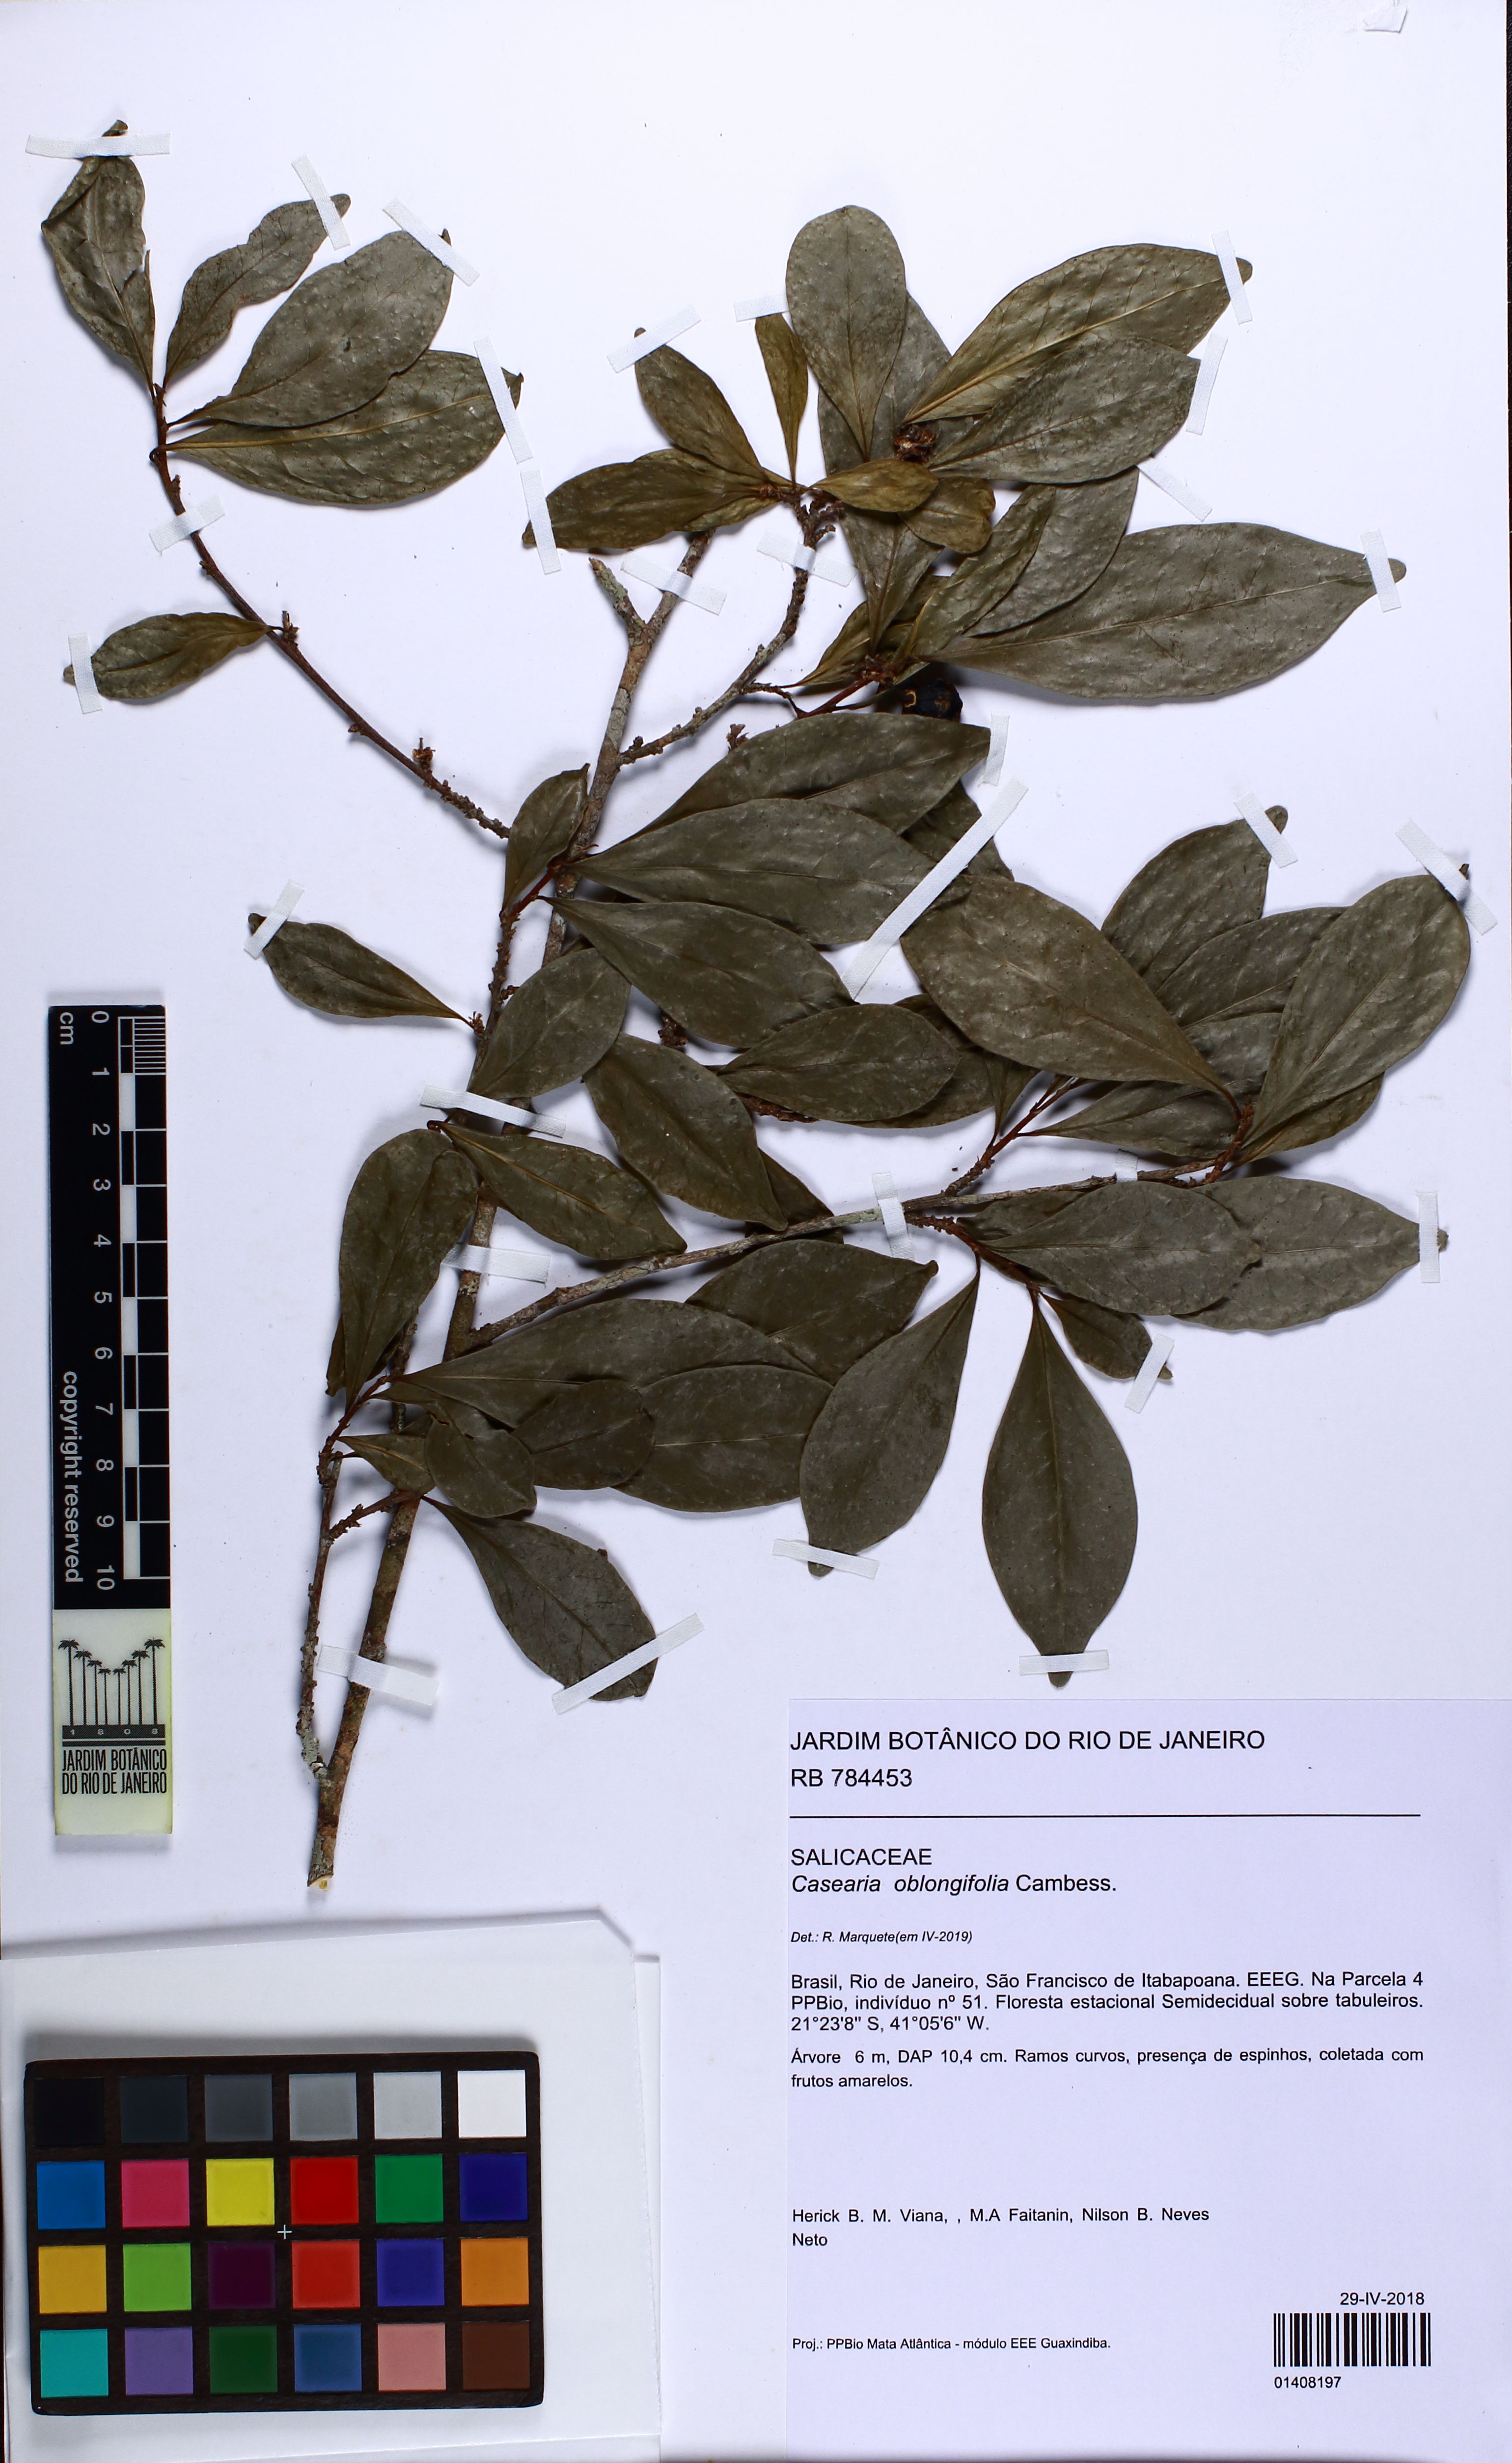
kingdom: Plantae
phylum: Tracheophyta
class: Magnoliopsida
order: Malpighiales
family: Salicaceae
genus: Casearia
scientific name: Casearia oblongifolia
